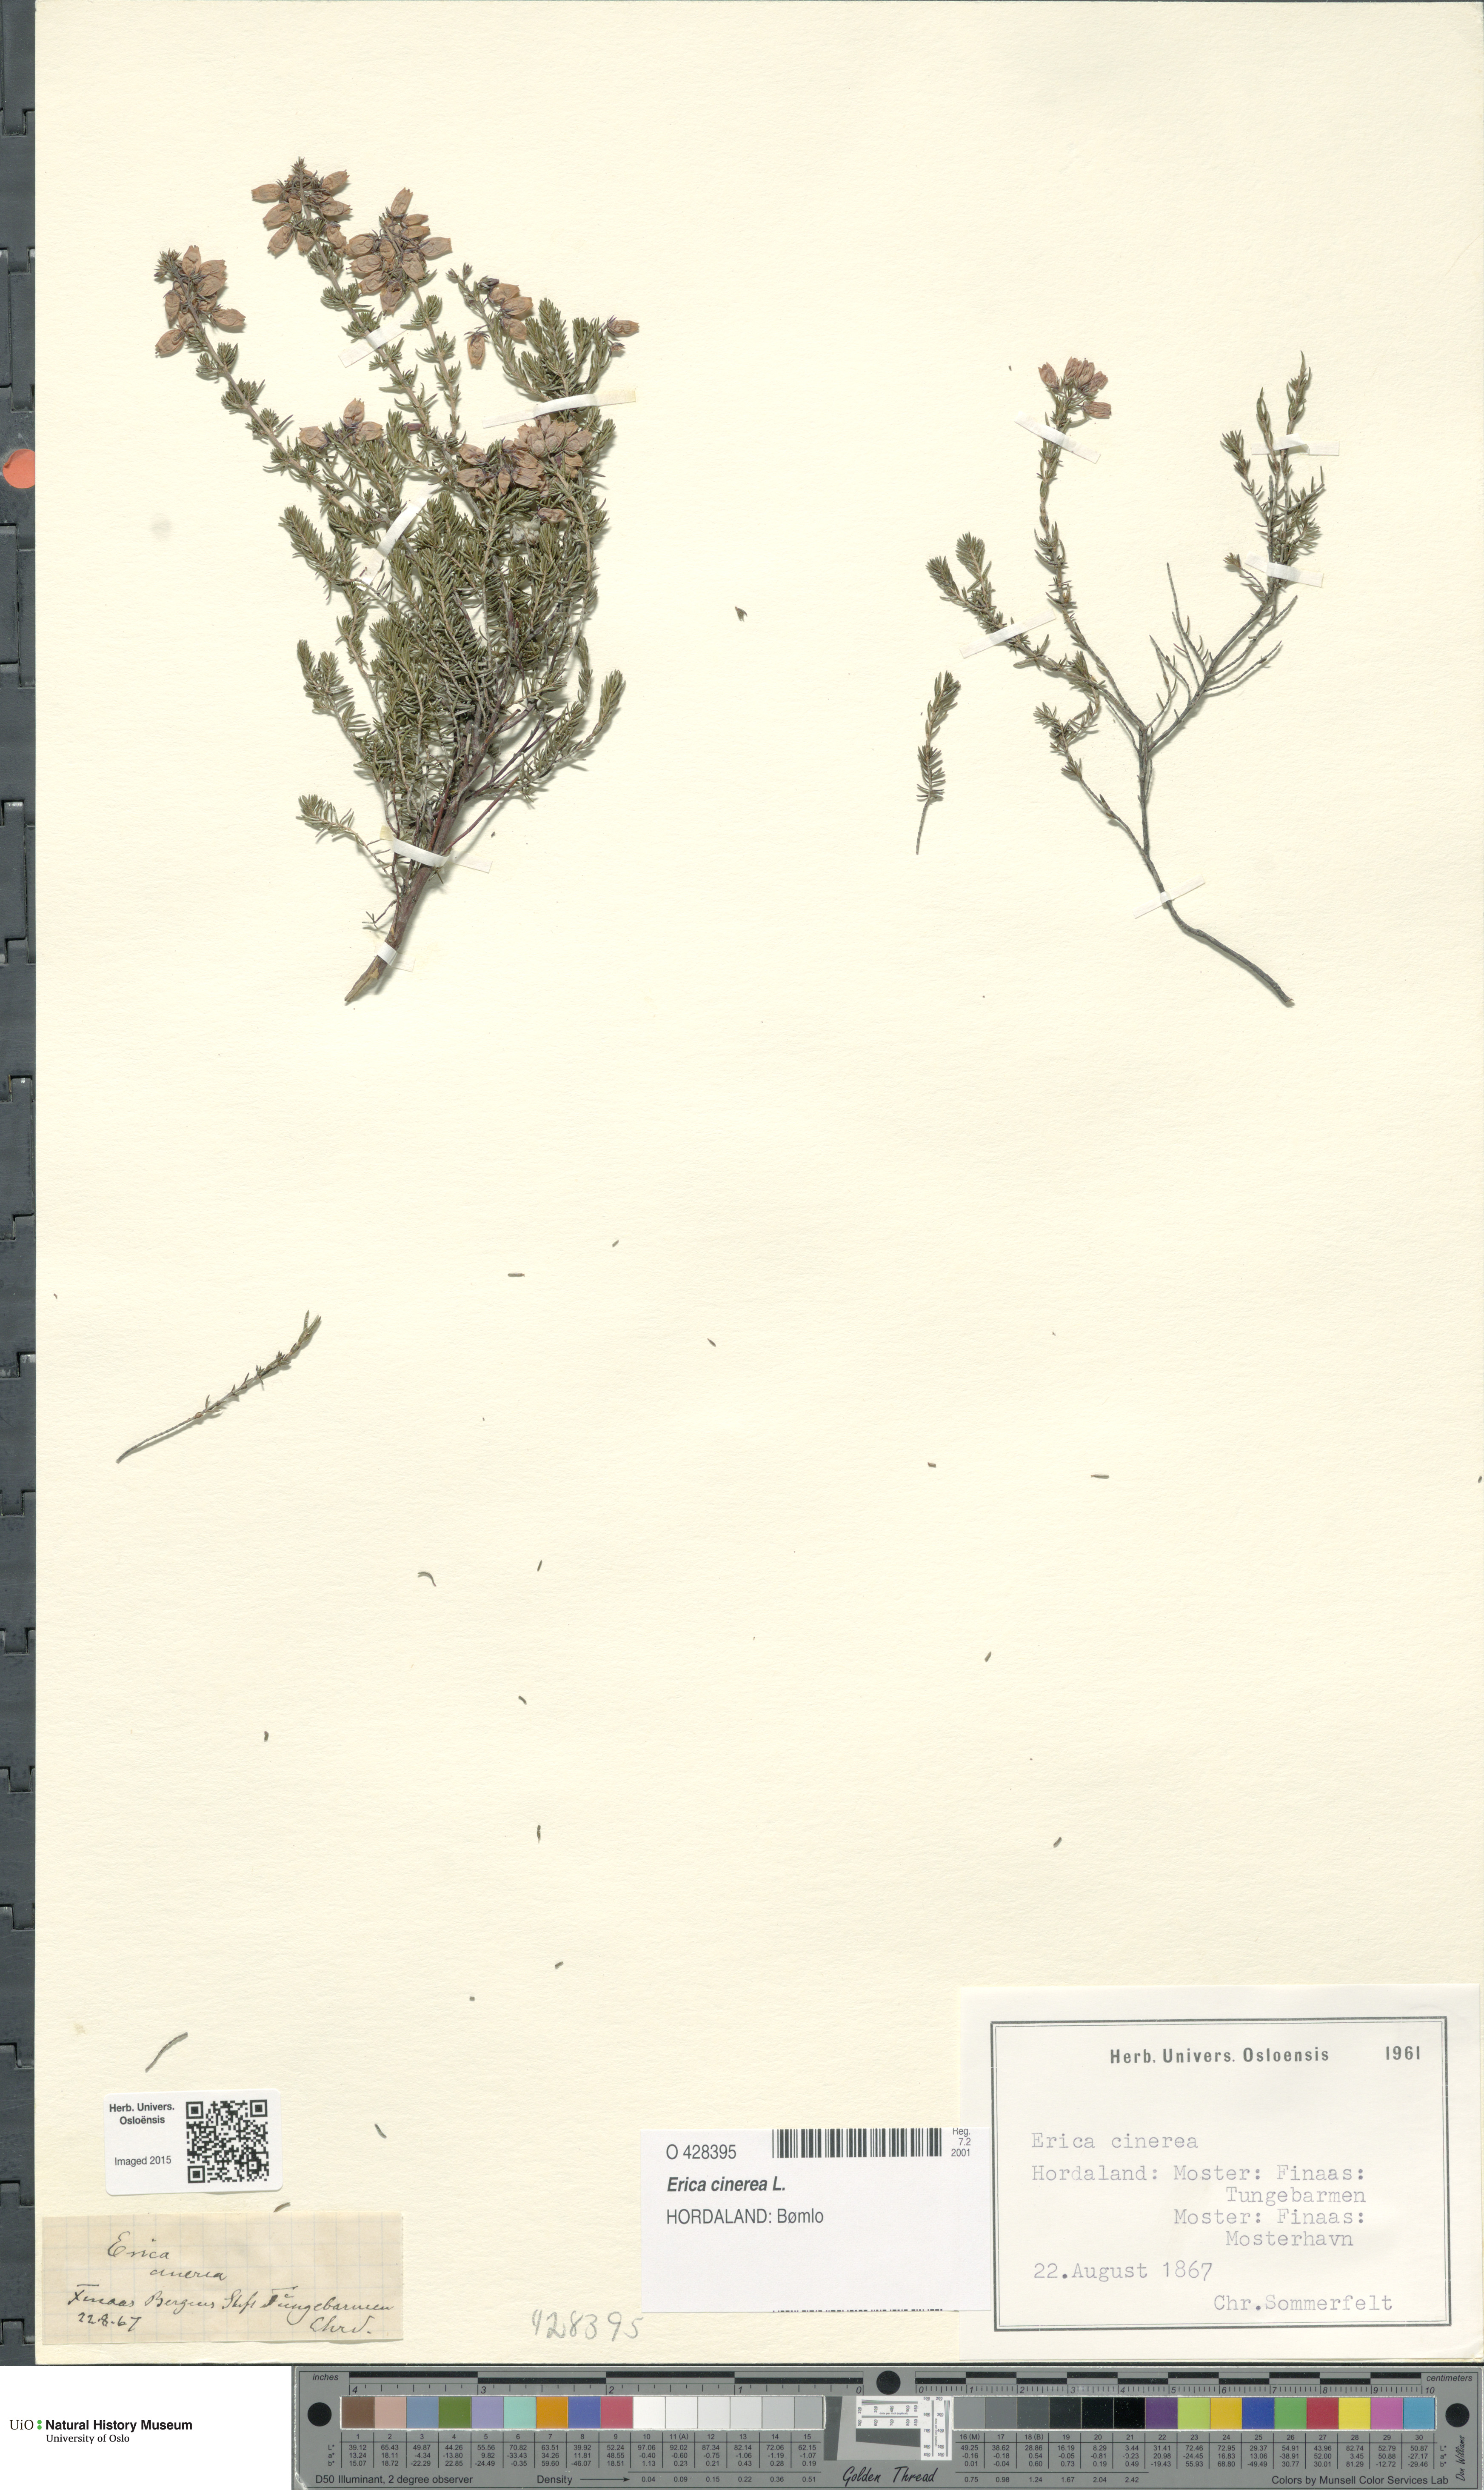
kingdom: Plantae
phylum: Tracheophyta
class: Magnoliopsida
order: Ericales
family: Ericaceae
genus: Erica
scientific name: Erica cinerea
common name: Bell heather
